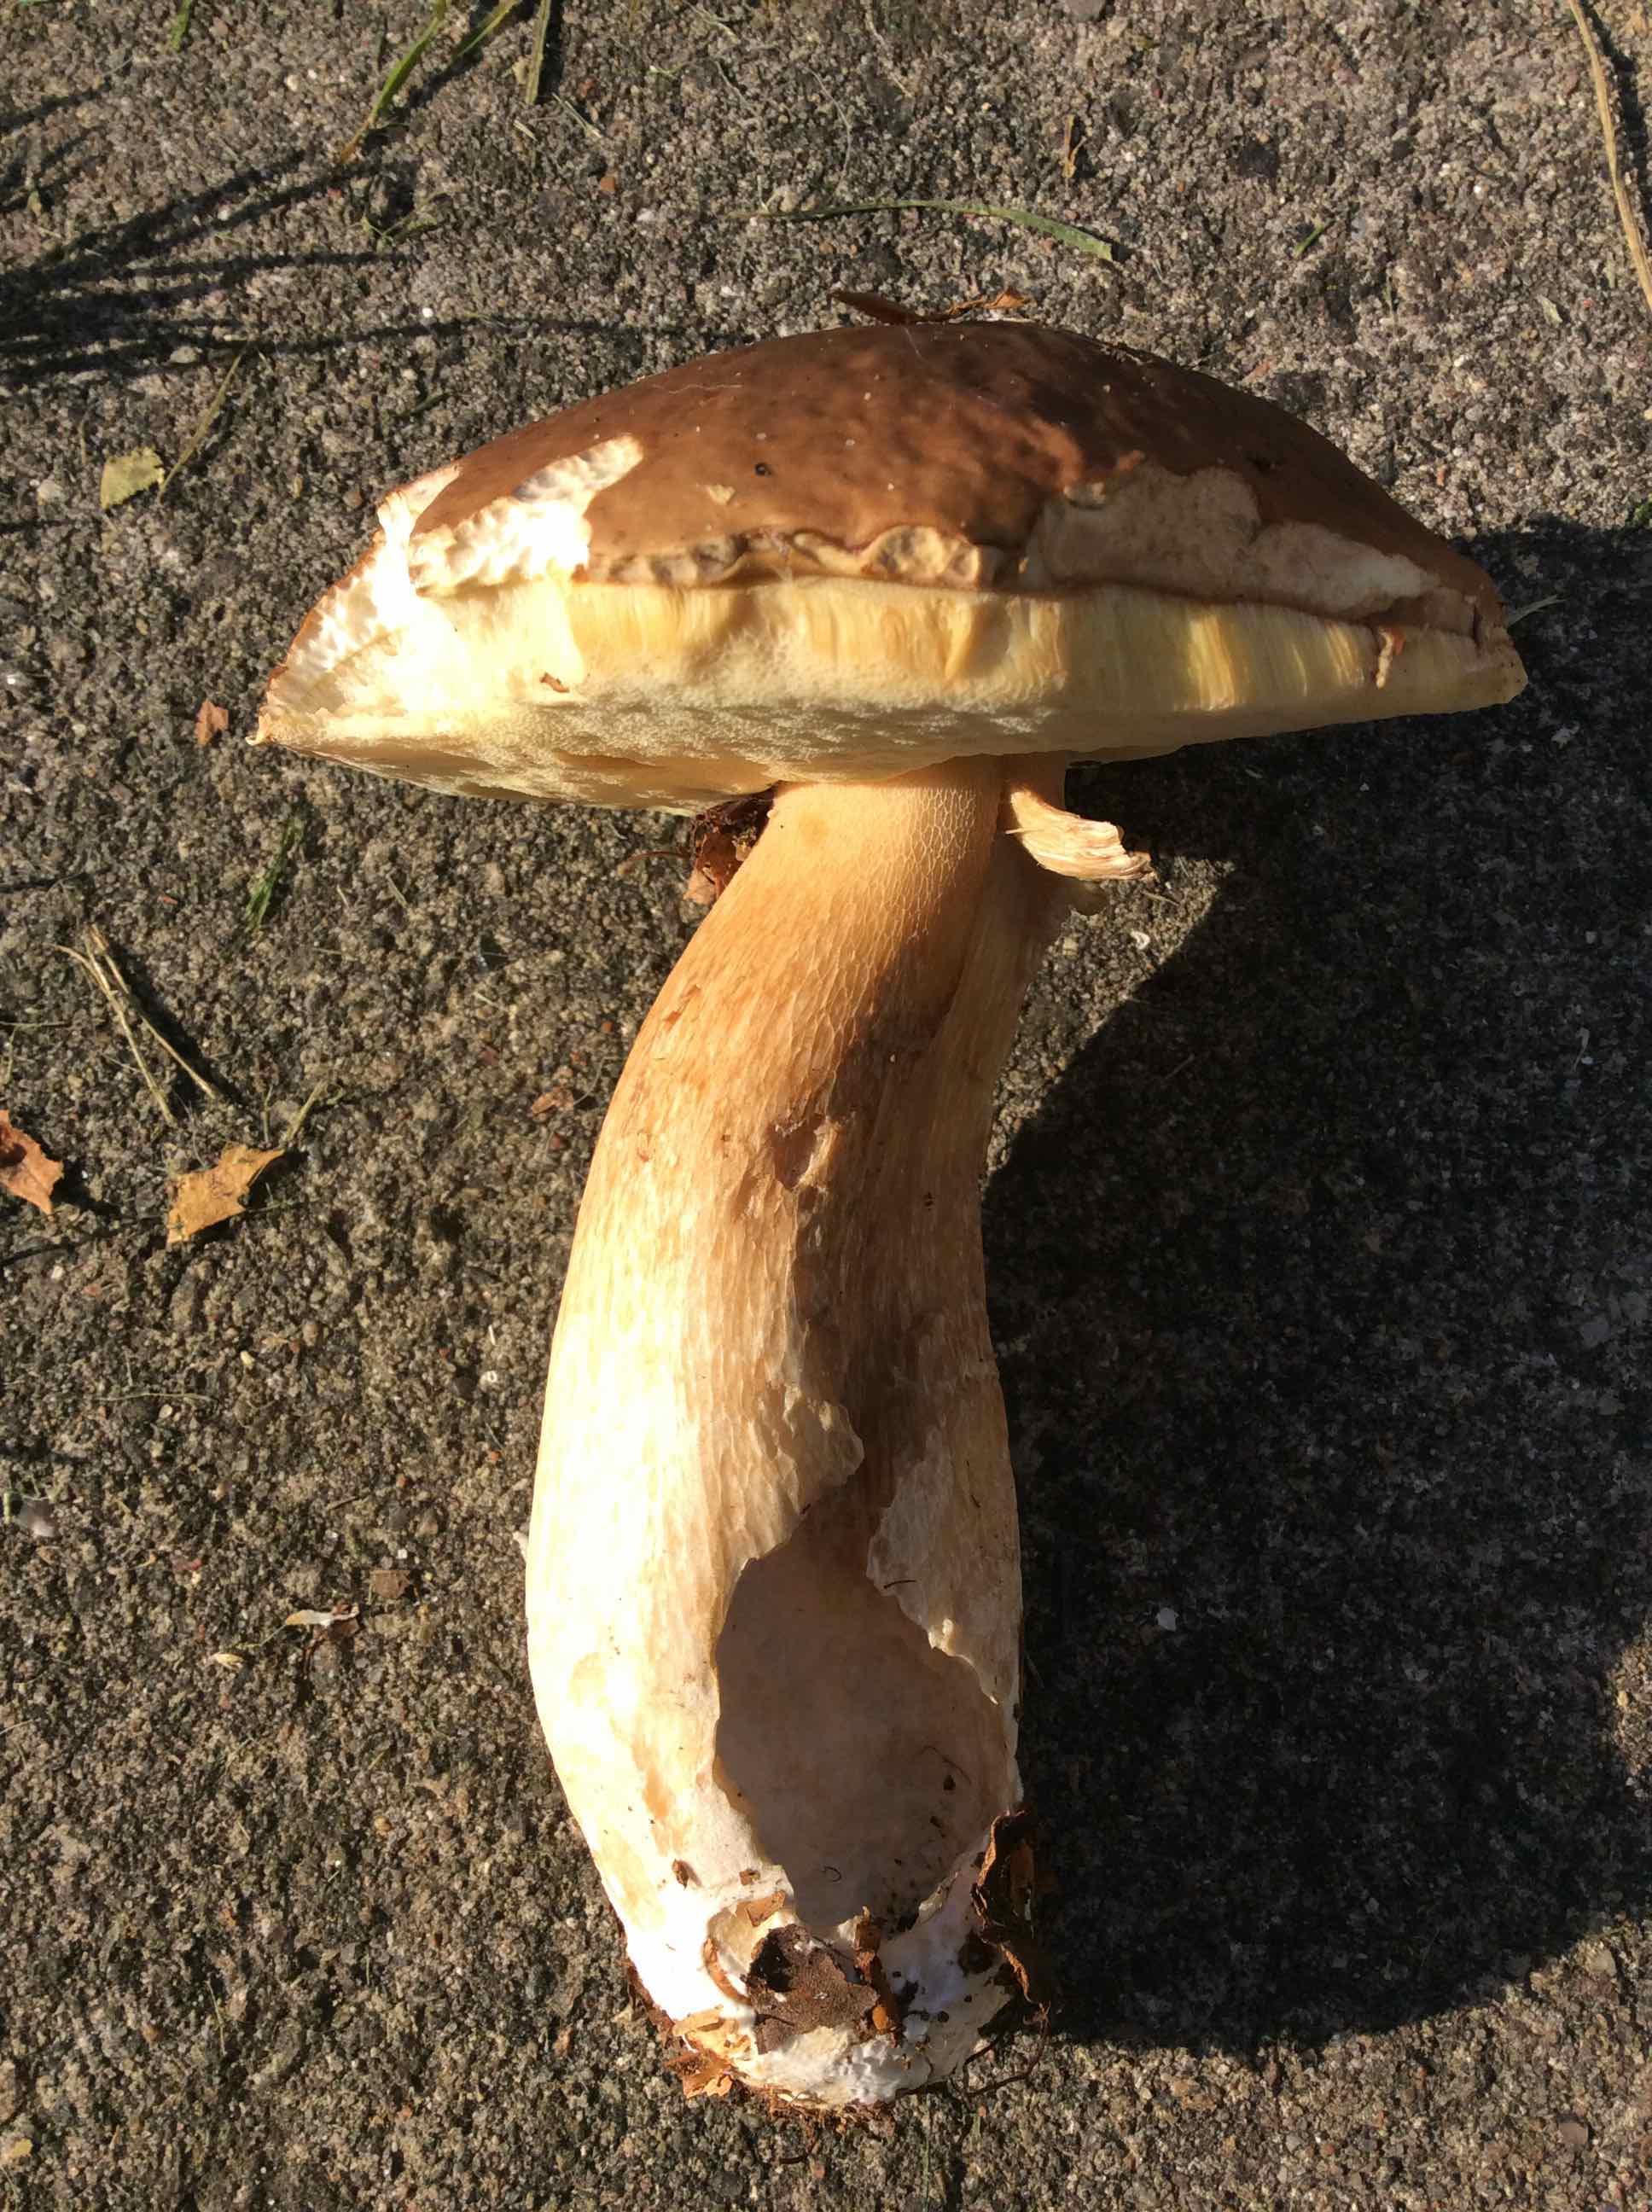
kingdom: Fungi
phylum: Basidiomycota
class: Agaricomycetes
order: Boletales
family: Boletaceae
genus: Boletus
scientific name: Boletus edulis
